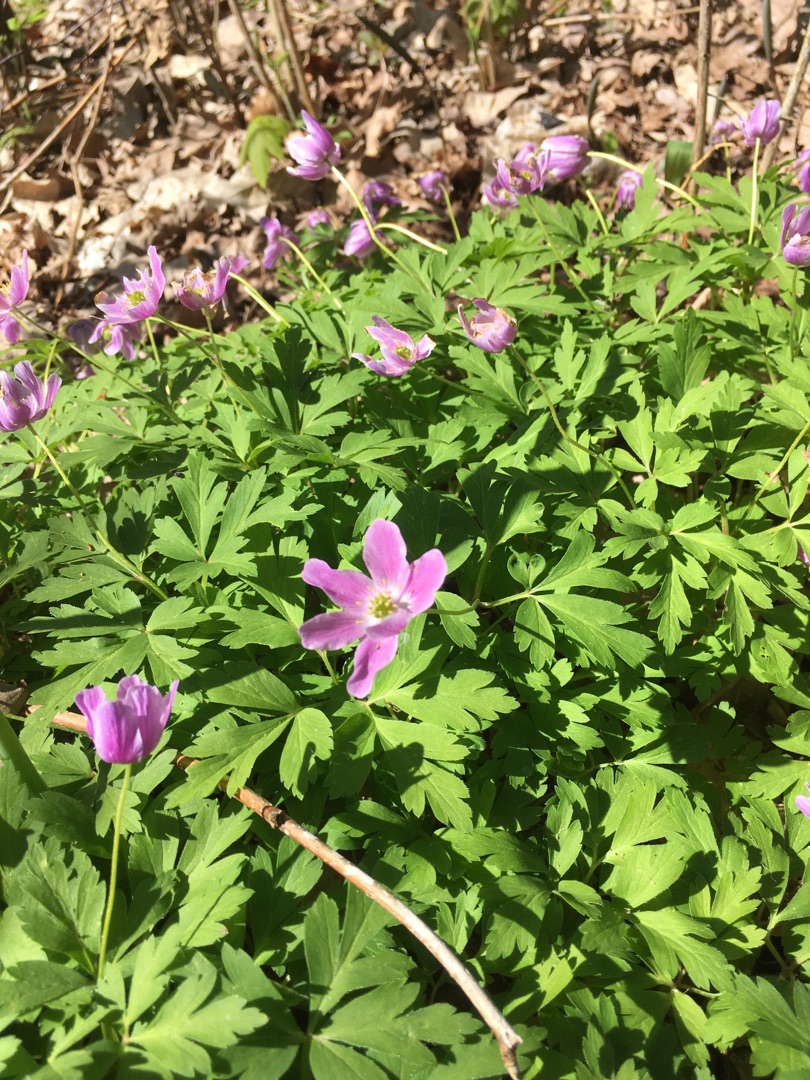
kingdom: Plantae
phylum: Tracheophyta
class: Magnoliopsida
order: Ranunculales
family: Ranunculaceae
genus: Anemone
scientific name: Anemone nemorosa
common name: Hvid anemone
